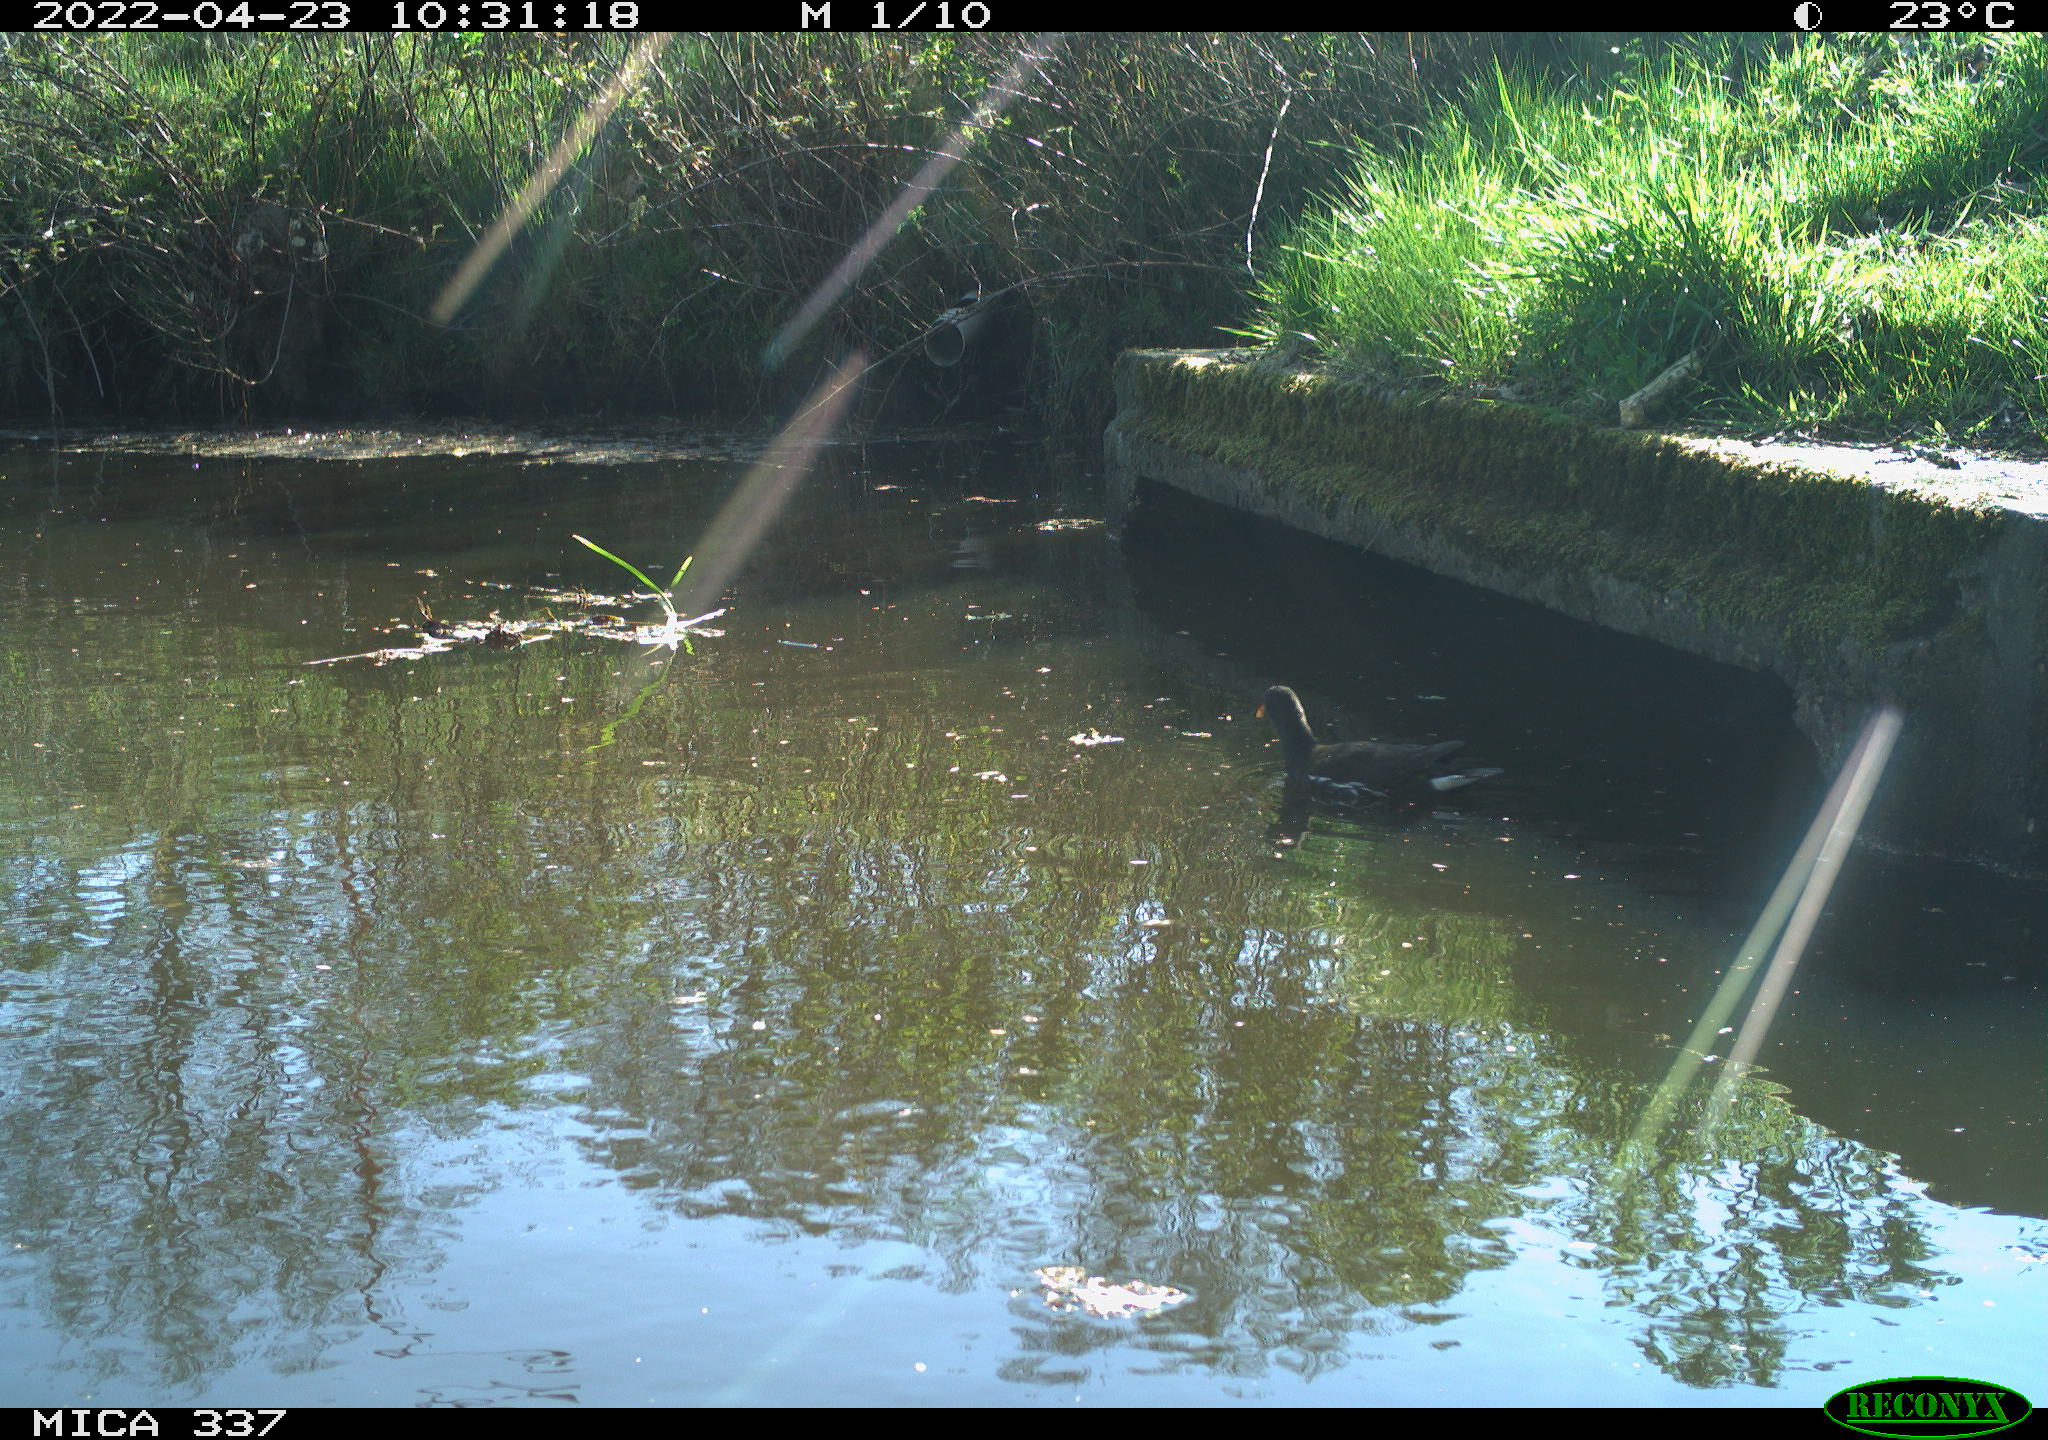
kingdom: Animalia
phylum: Chordata
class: Aves
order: Gruiformes
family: Rallidae
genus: Gallinula
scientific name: Gallinula chloropus
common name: Common moorhen
